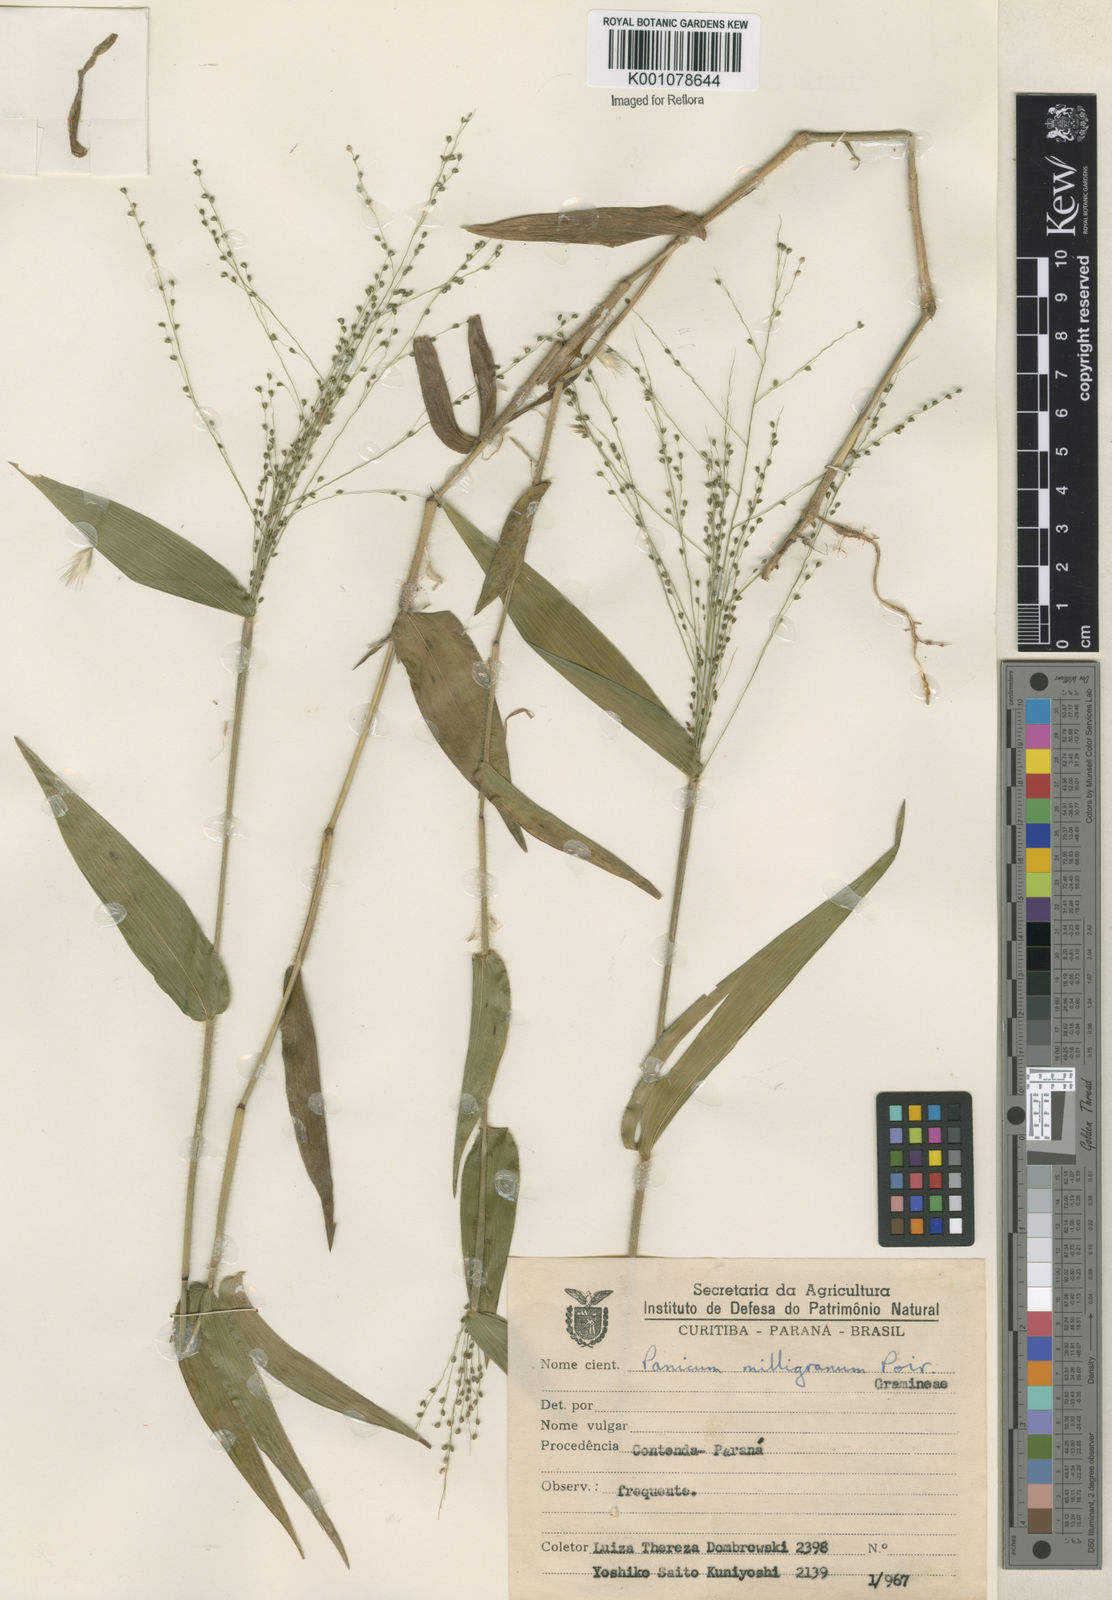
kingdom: Plantae
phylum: Tracheophyta
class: Liliopsida
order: Poales
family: Poaceae
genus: Panicum
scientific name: Panicum millegrana
